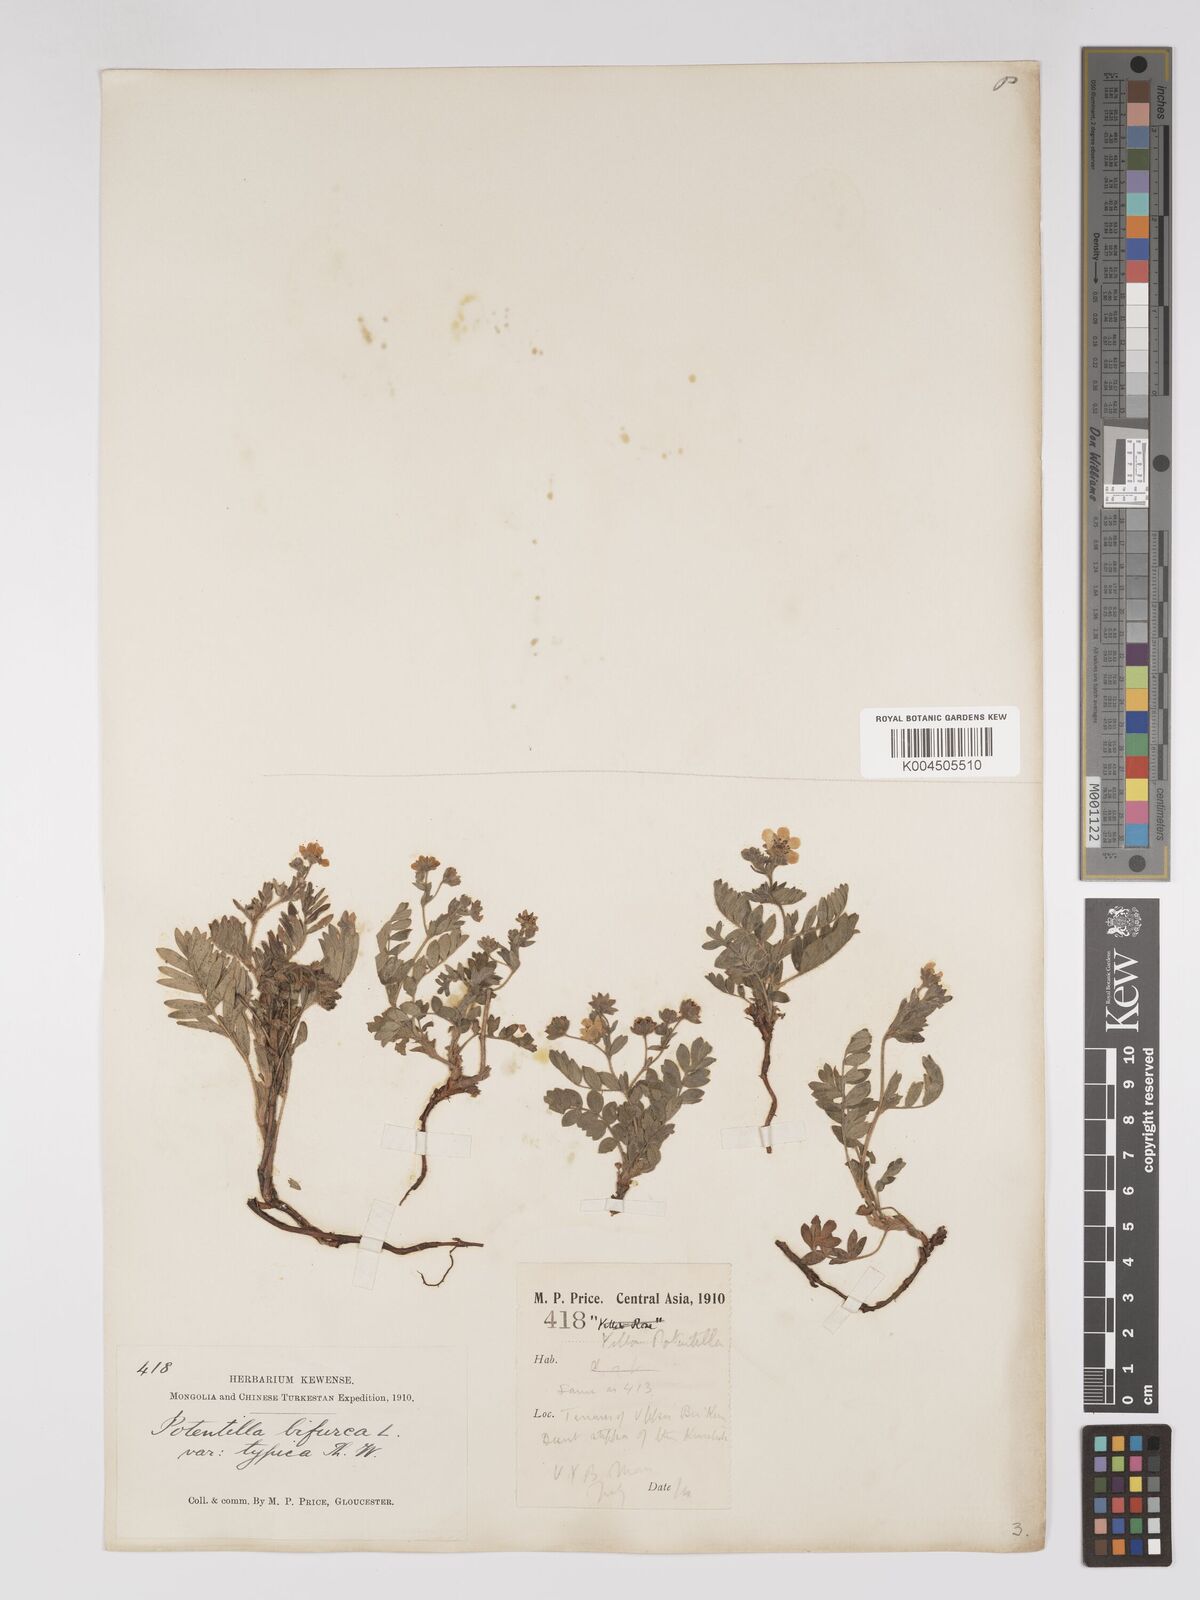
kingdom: Plantae
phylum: Tracheophyta
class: Magnoliopsida
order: Rosales
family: Rosaceae
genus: Sibbaldianthe
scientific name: Sibbaldianthe bifurca
